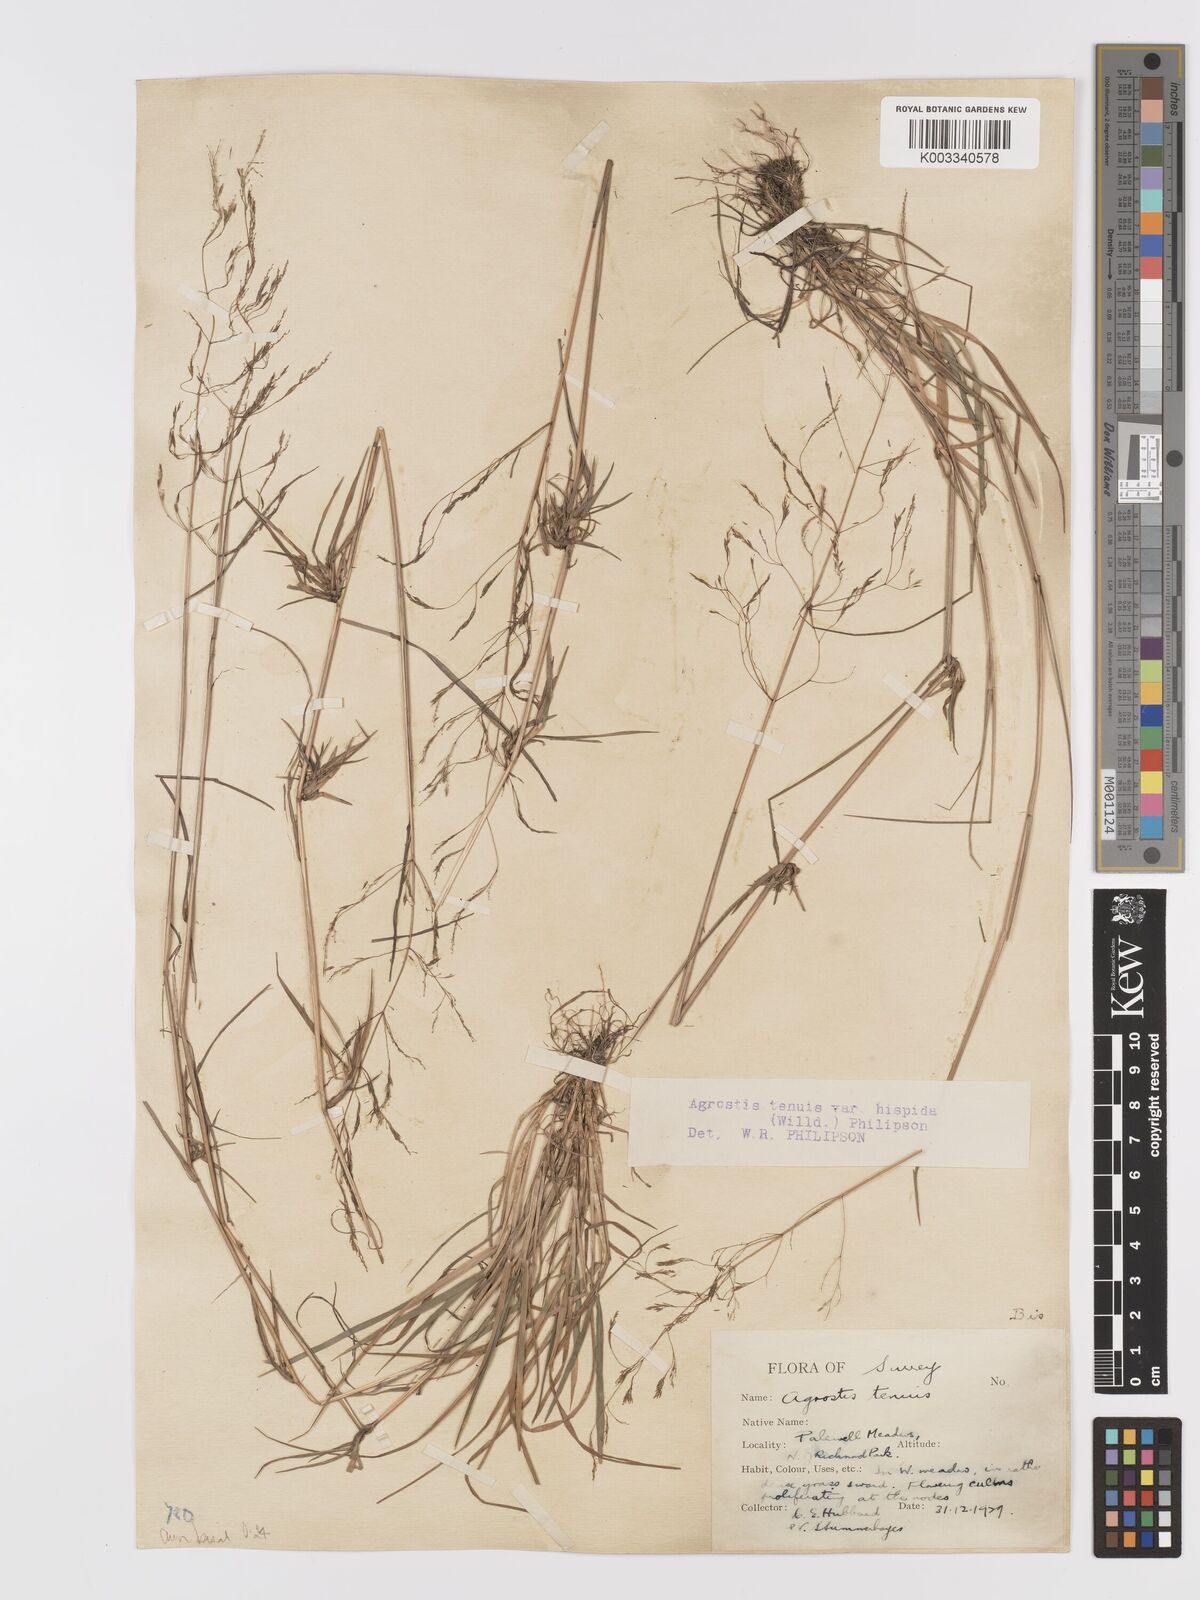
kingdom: Plantae
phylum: Tracheophyta
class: Liliopsida
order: Poales
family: Poaceae
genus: Agrostis
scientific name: Agrostis capillaris
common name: Colonial bentgrass
